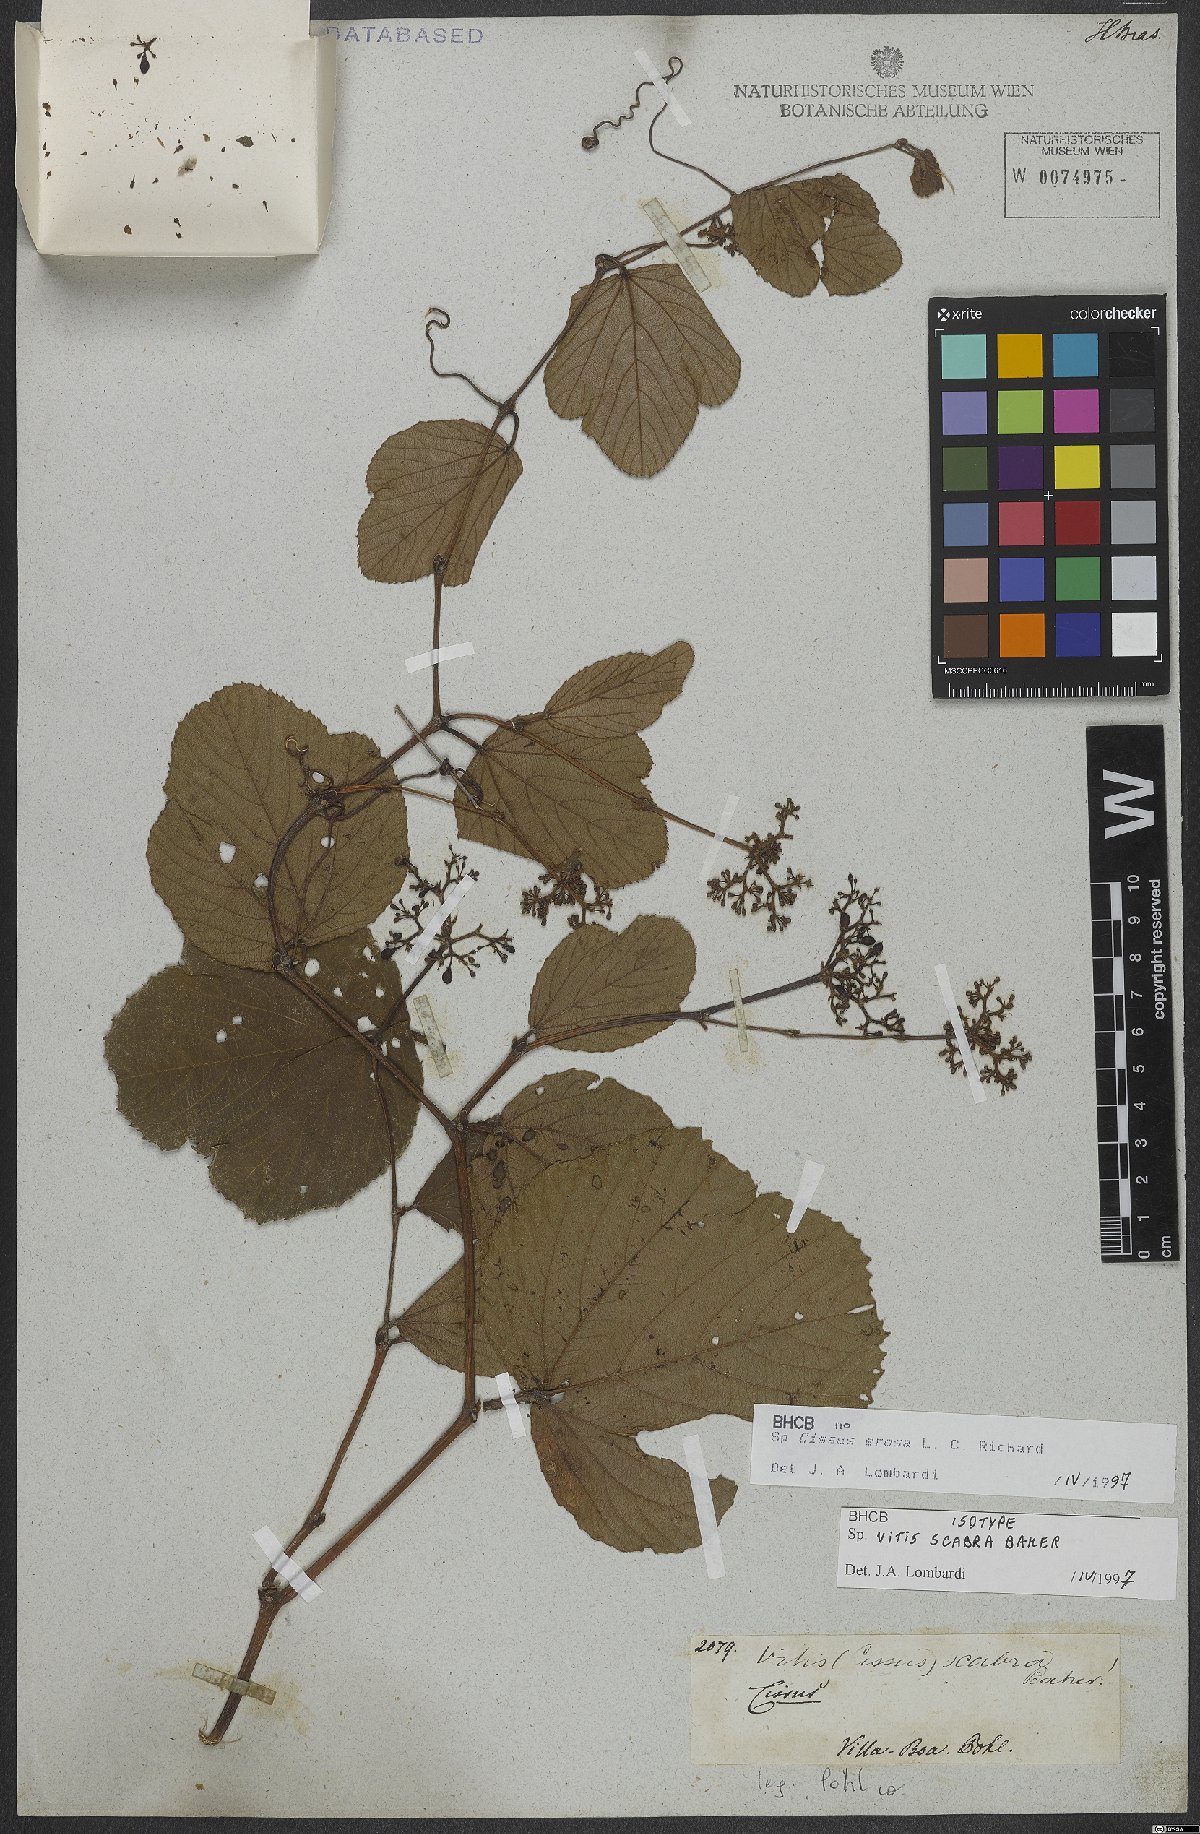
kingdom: Plantae
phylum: Tracheophyta
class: Magnoliopsida
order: Vitales
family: Vitaceae
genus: Cissus
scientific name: Cissus erosa
